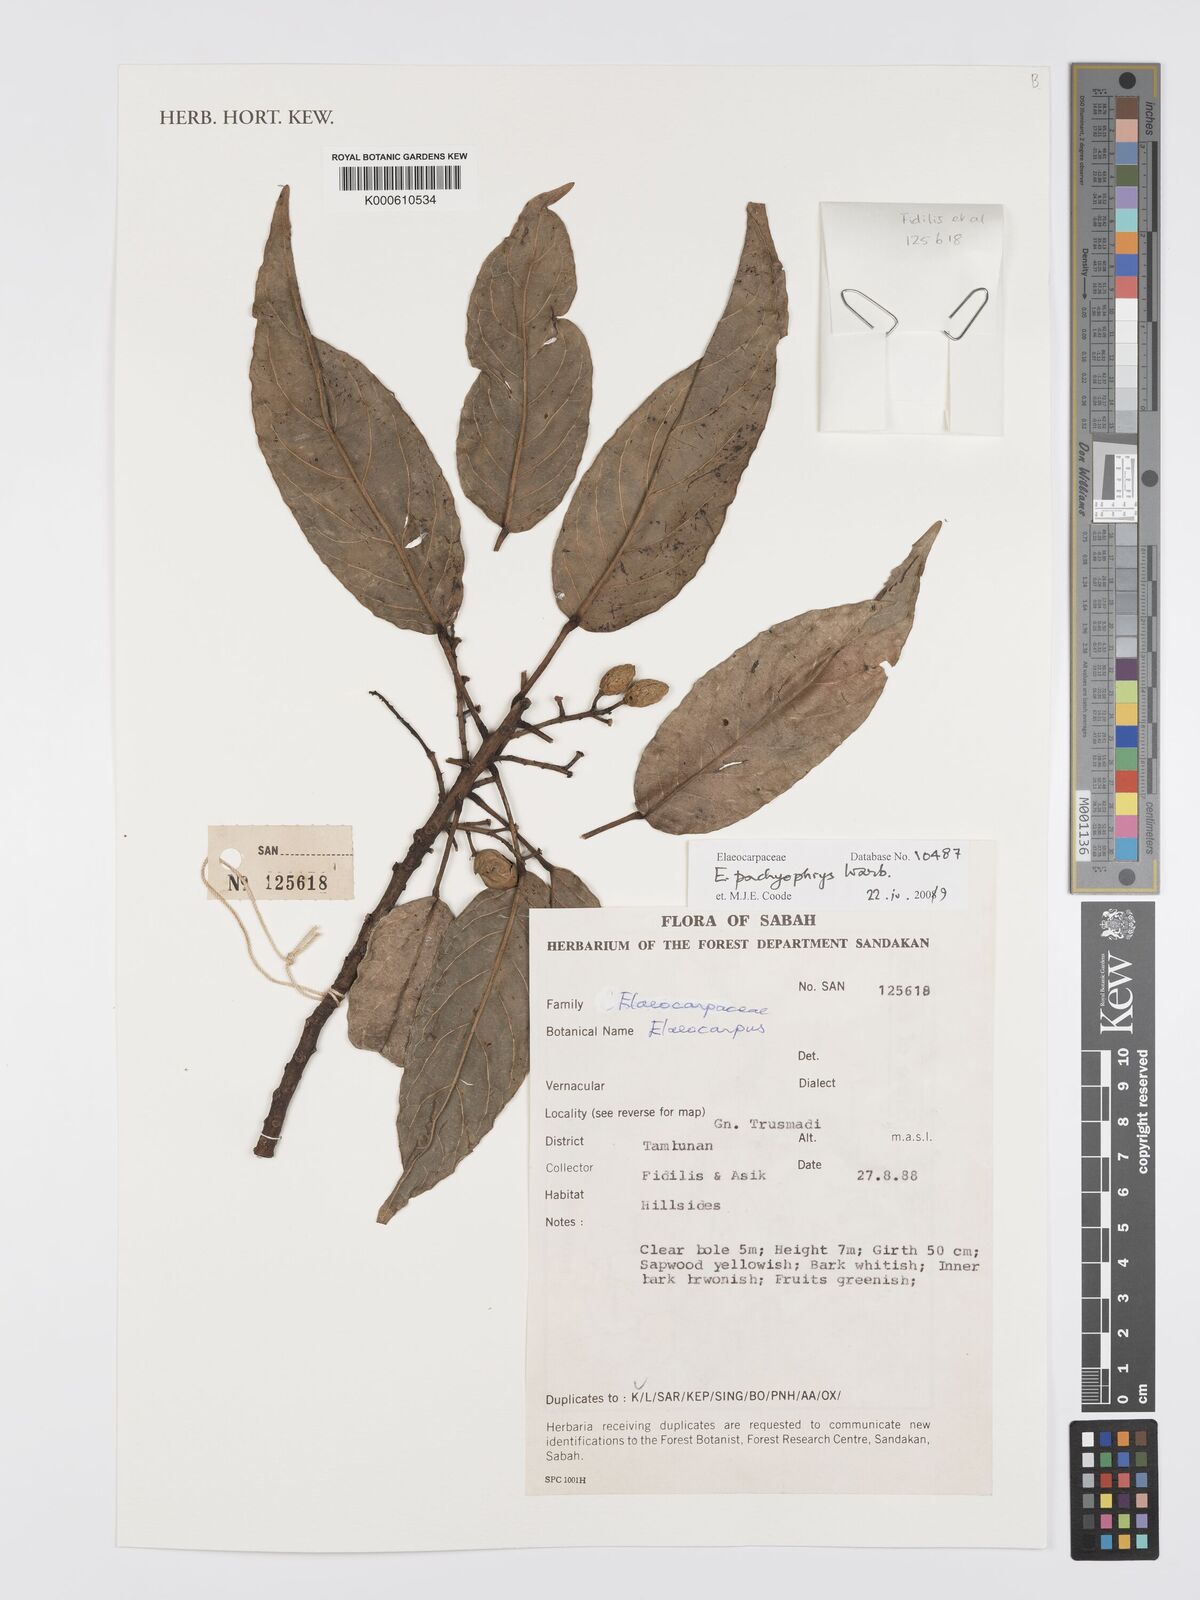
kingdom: Plantae
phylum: Tracheophyta
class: Magnoliopsida
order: Oxalidales
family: Elaeocarpaceae
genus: Elaeocarpus
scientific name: Elaeocarpus pachyophrys
